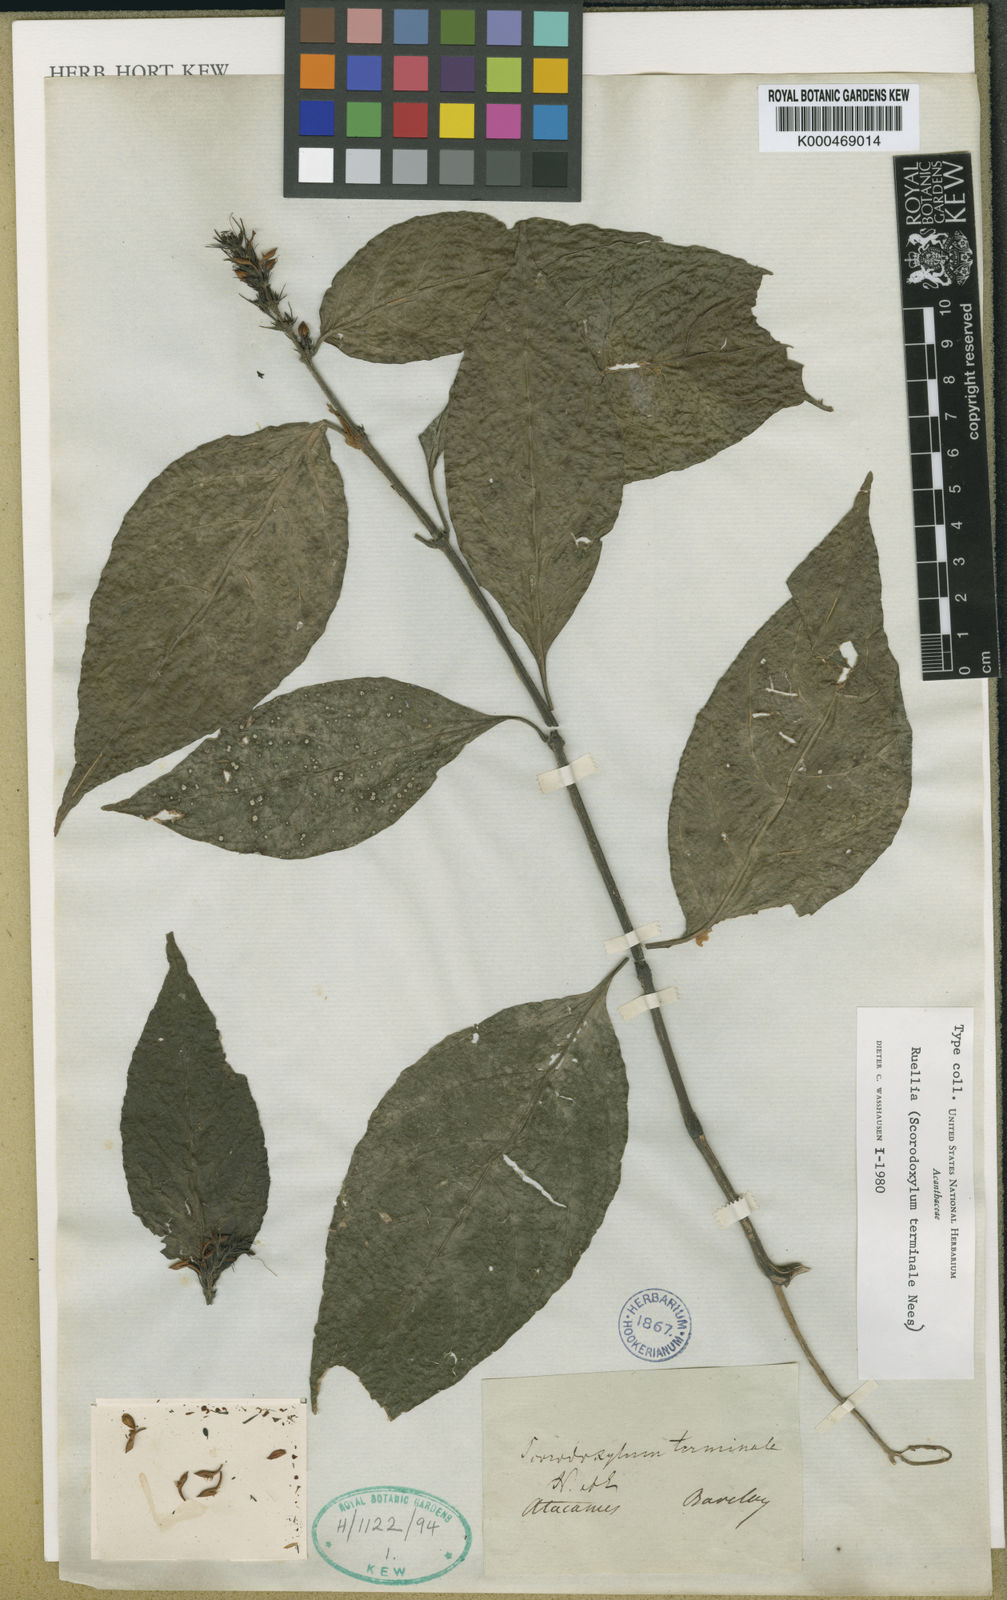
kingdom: Plantae
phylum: Tracheophyta
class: Magnoliopsida
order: Lamiales
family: Acanthaceae
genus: Ruellia
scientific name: Ruellia
